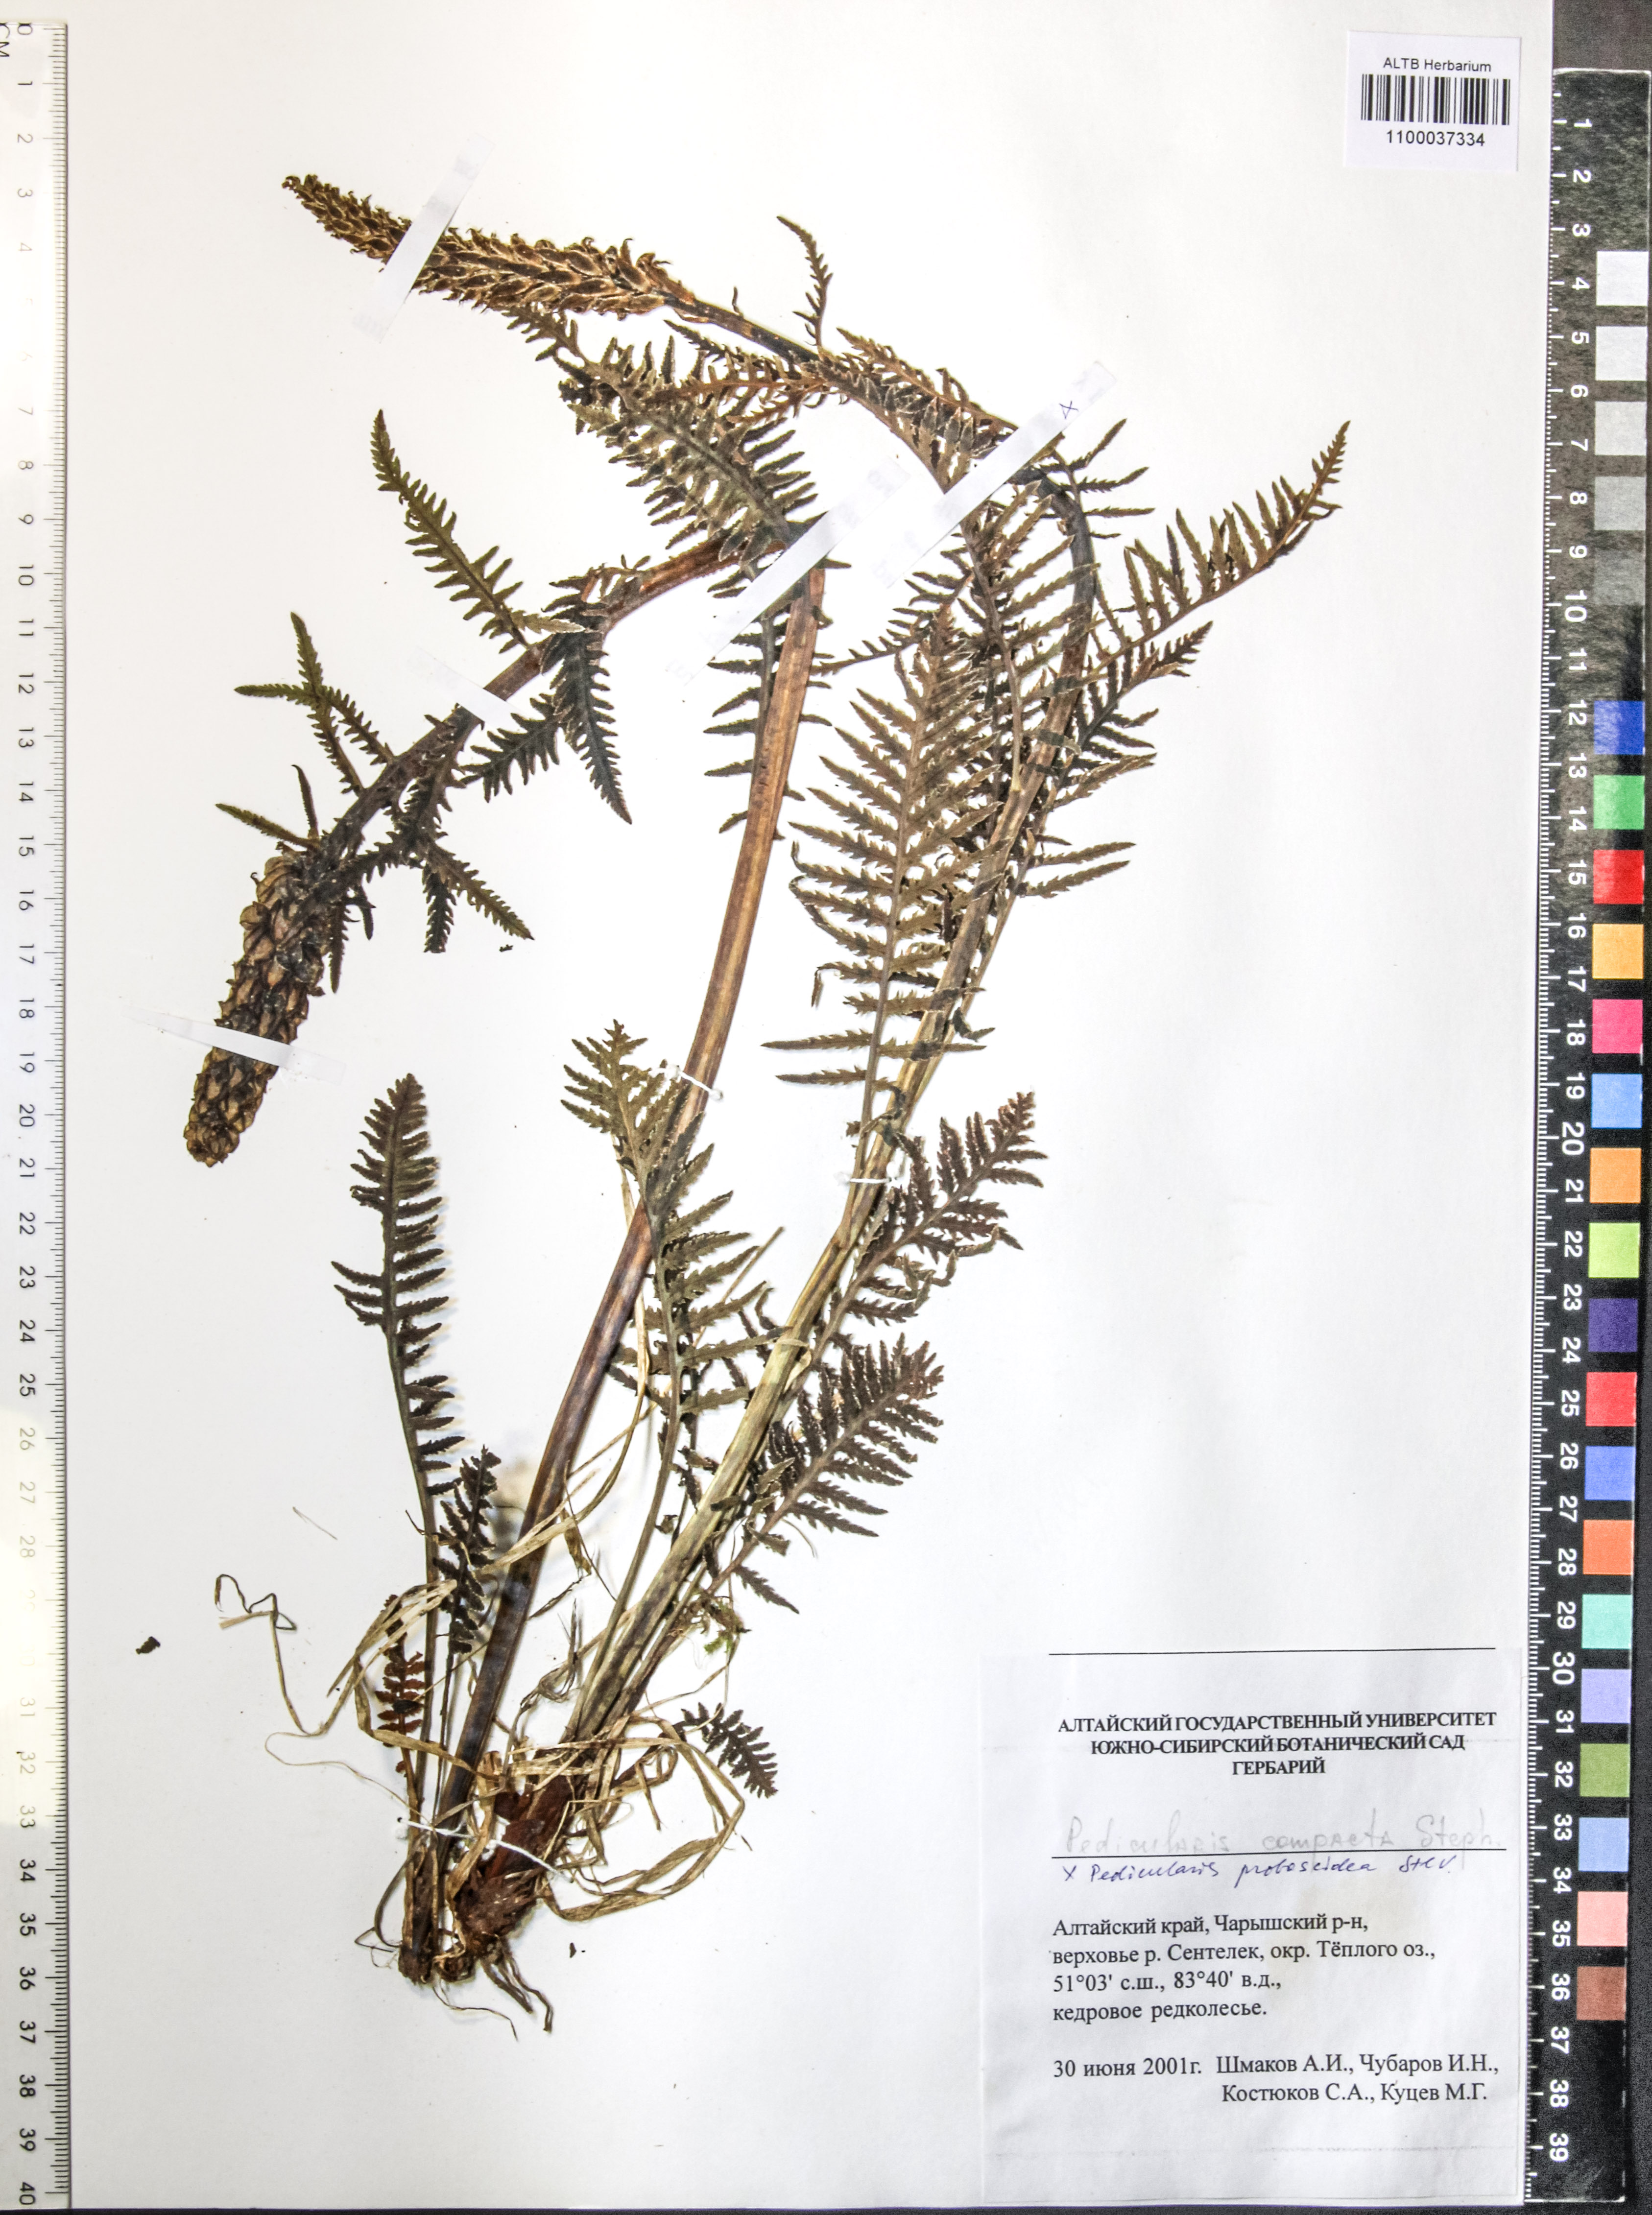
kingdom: Plantae
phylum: Tracheophyta
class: Magnoliopsida
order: Lamiales
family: Orobanchaceae
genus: Pedicularis
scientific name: Pedicularis compacta
